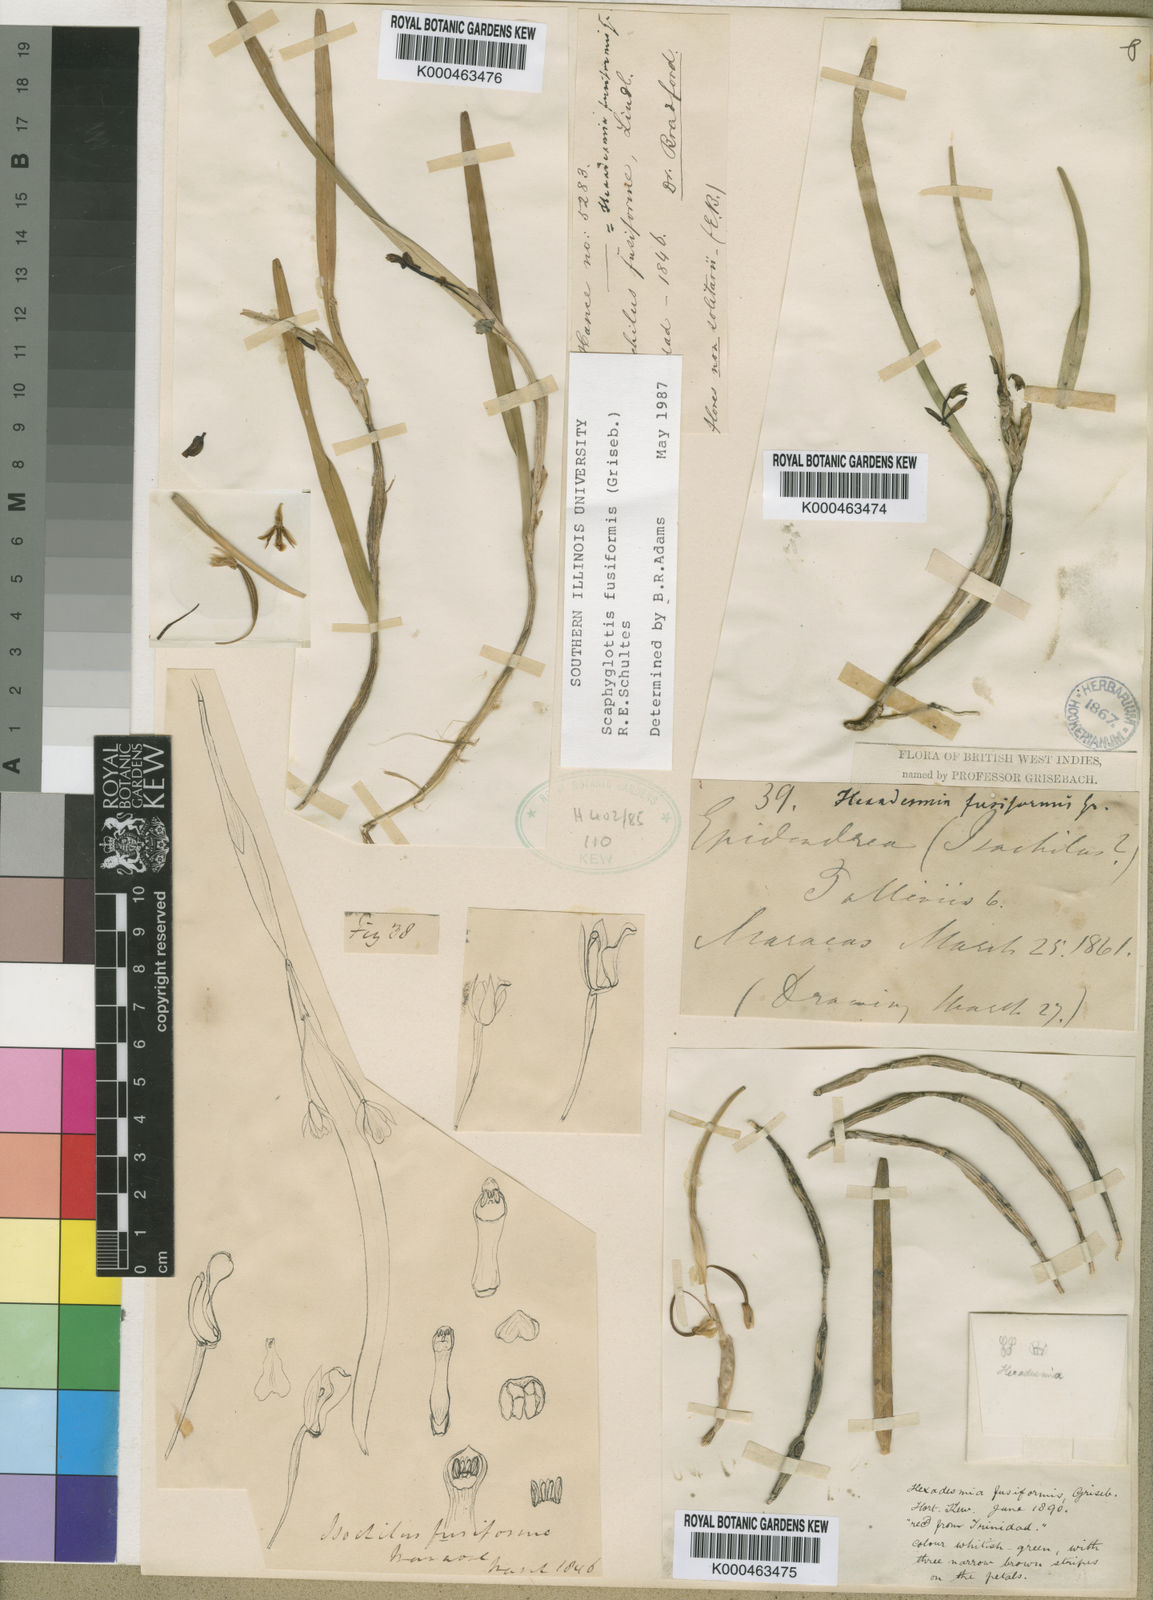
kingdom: Plantae
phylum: Tracheophyta
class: Liliopsida
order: Asparagales
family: Orchidaceae
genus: Scaphyglottis
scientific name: Scaphyglottis fusiformis
